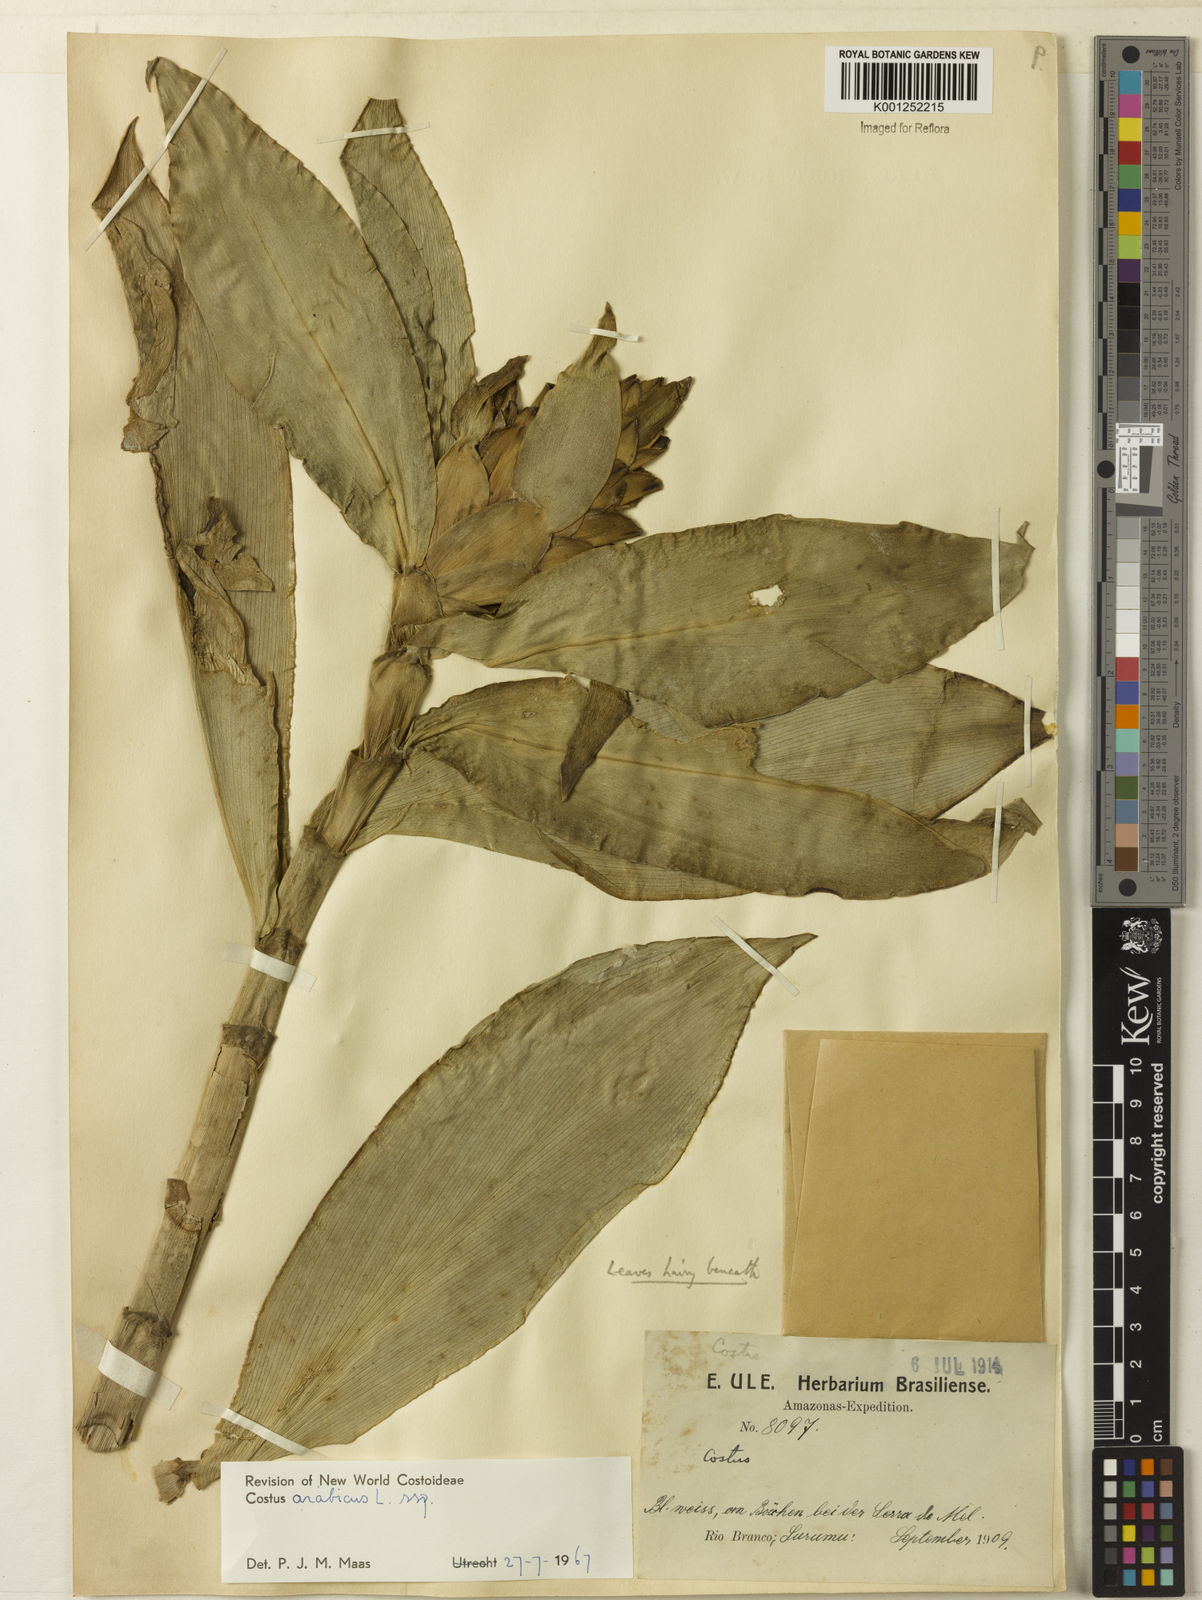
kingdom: Plantae
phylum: Tracheophyta
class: Liliopsida
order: Zingiberales
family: Costaceae
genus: Costus
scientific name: Costus arabicus
